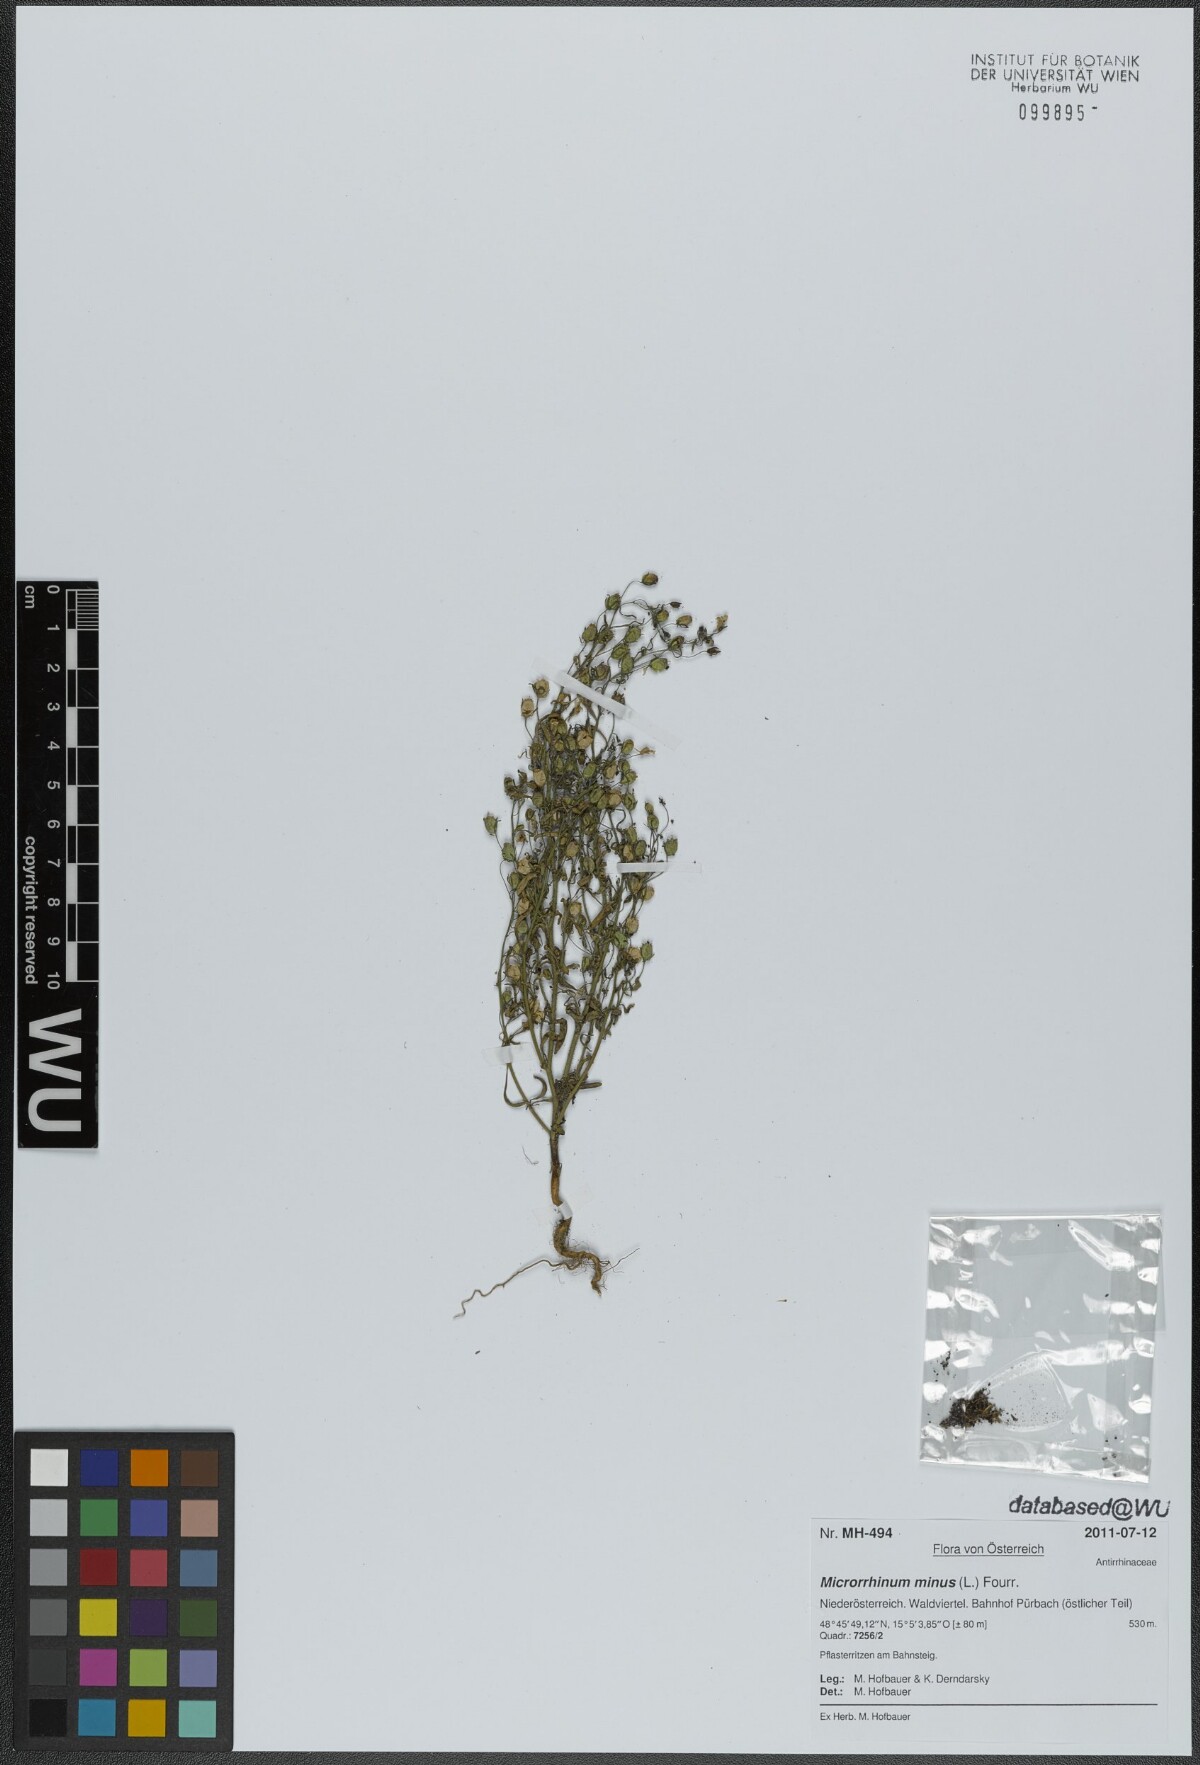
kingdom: Plantae
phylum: Tracheophyta
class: Magnoliopsida
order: Lamiales
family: Plantaginaceae
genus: Chaenorhinum
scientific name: Chaenorhinum minus
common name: Dwarf snapdragon
